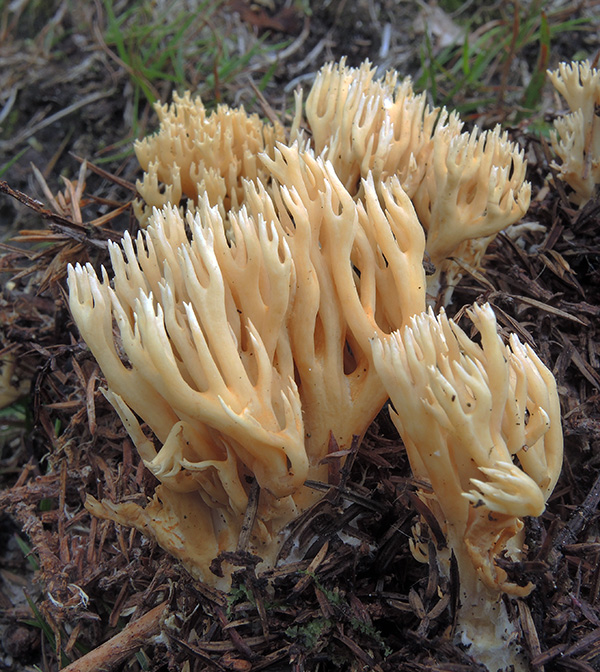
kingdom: Fungi
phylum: Basidiomycota
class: Agaricomycetes
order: Gomphales
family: Gomphaceae
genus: Phaeoclavulina
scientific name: Phaeoclavulina eumorpha
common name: gran-koralsvamp
